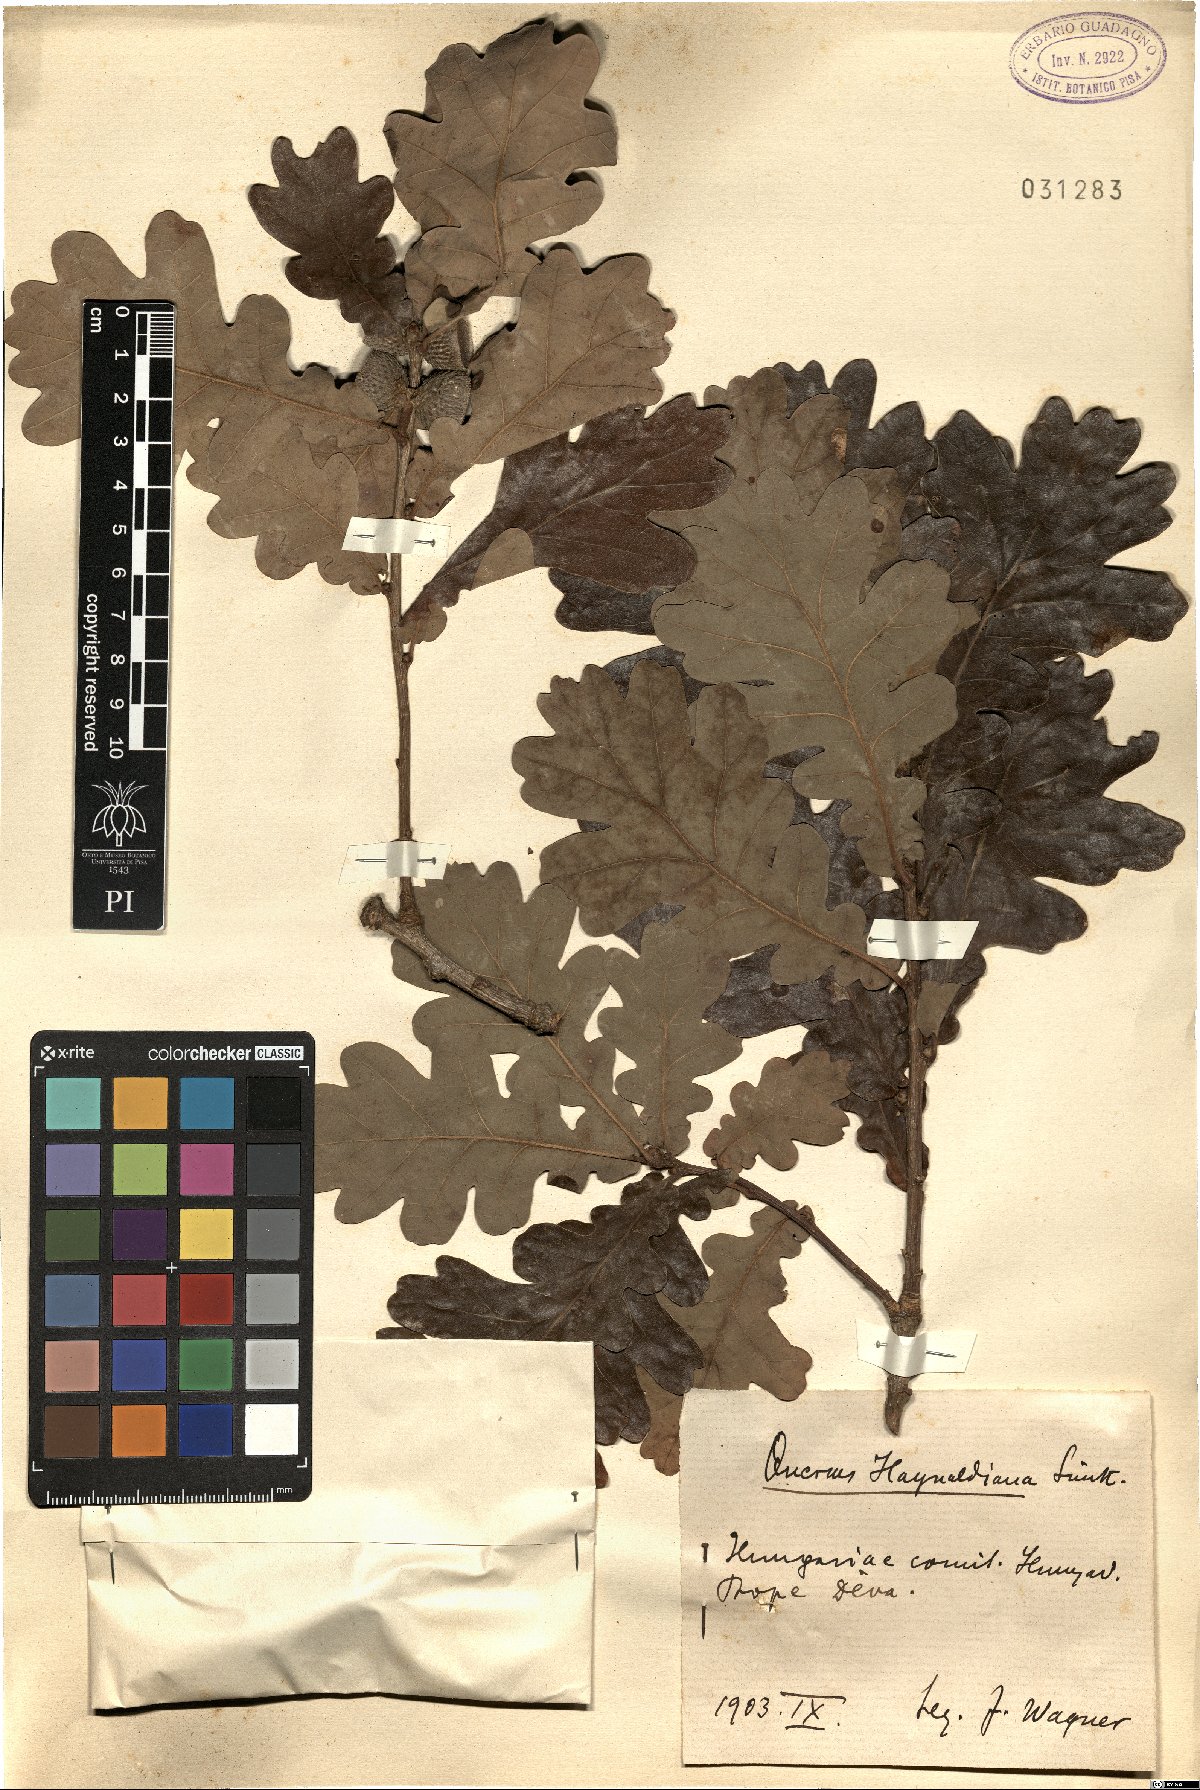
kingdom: Plantae
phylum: Tracheophyta
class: Magnoliopsida
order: Fagales
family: Fagaceae
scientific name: Fagaceae
